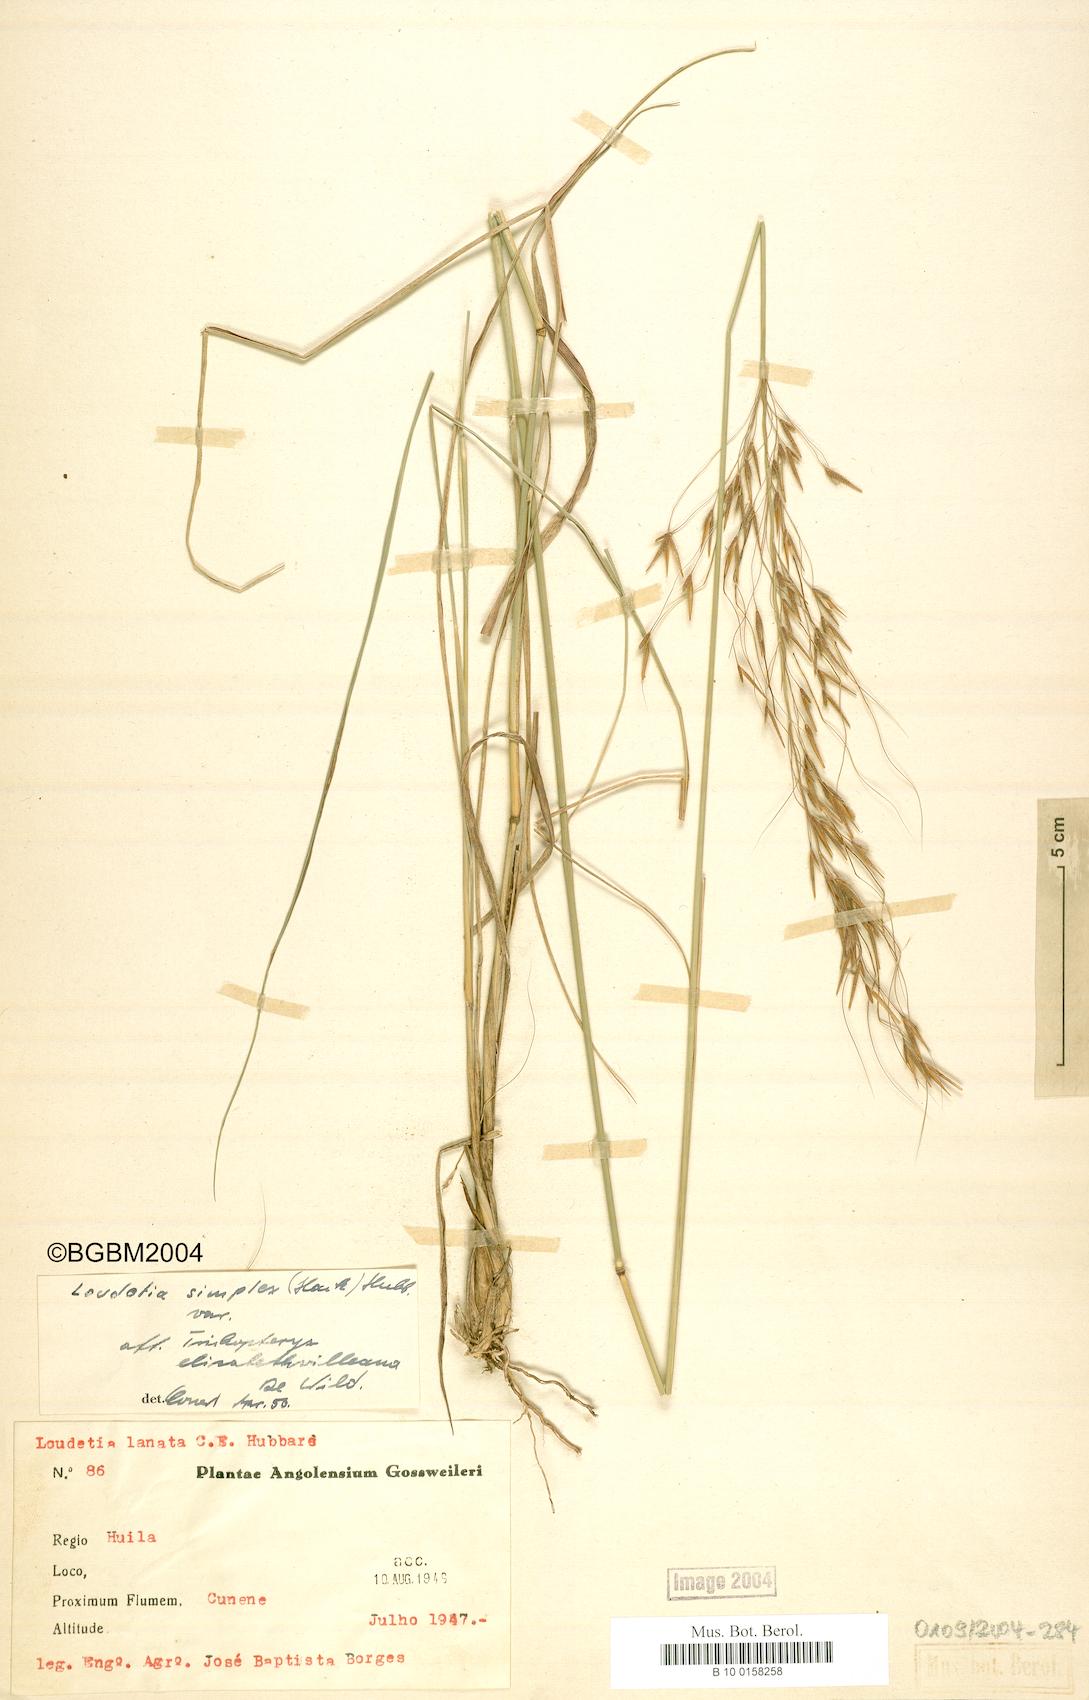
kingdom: Plantae
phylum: Tracheophyta
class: Liliopsida
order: Poales
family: Poaceae
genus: Loudetia
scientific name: Loudetia simplex
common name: Common russet grass
